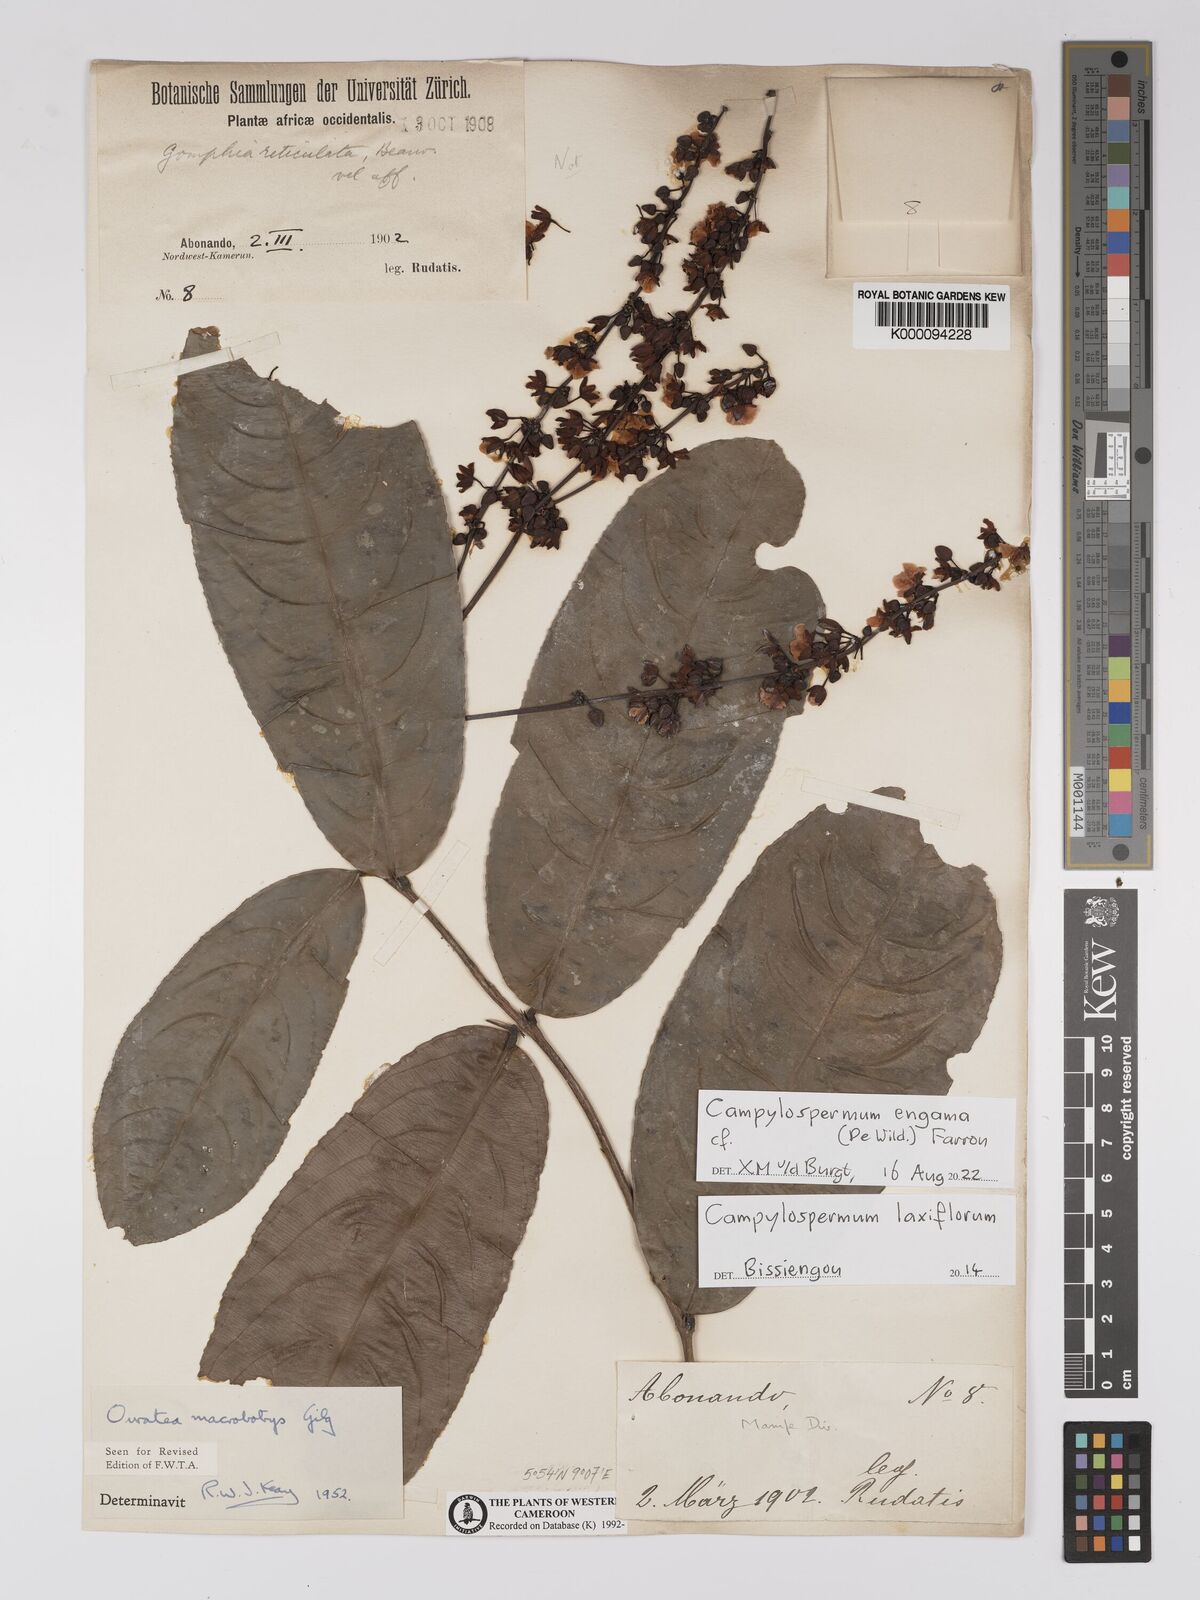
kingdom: Plantae
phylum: Tracheophyta
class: Magnoliopsida
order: Malpighiales
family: Ochnaceae
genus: Campylospermum
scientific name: Campylospermum laxiflorum
